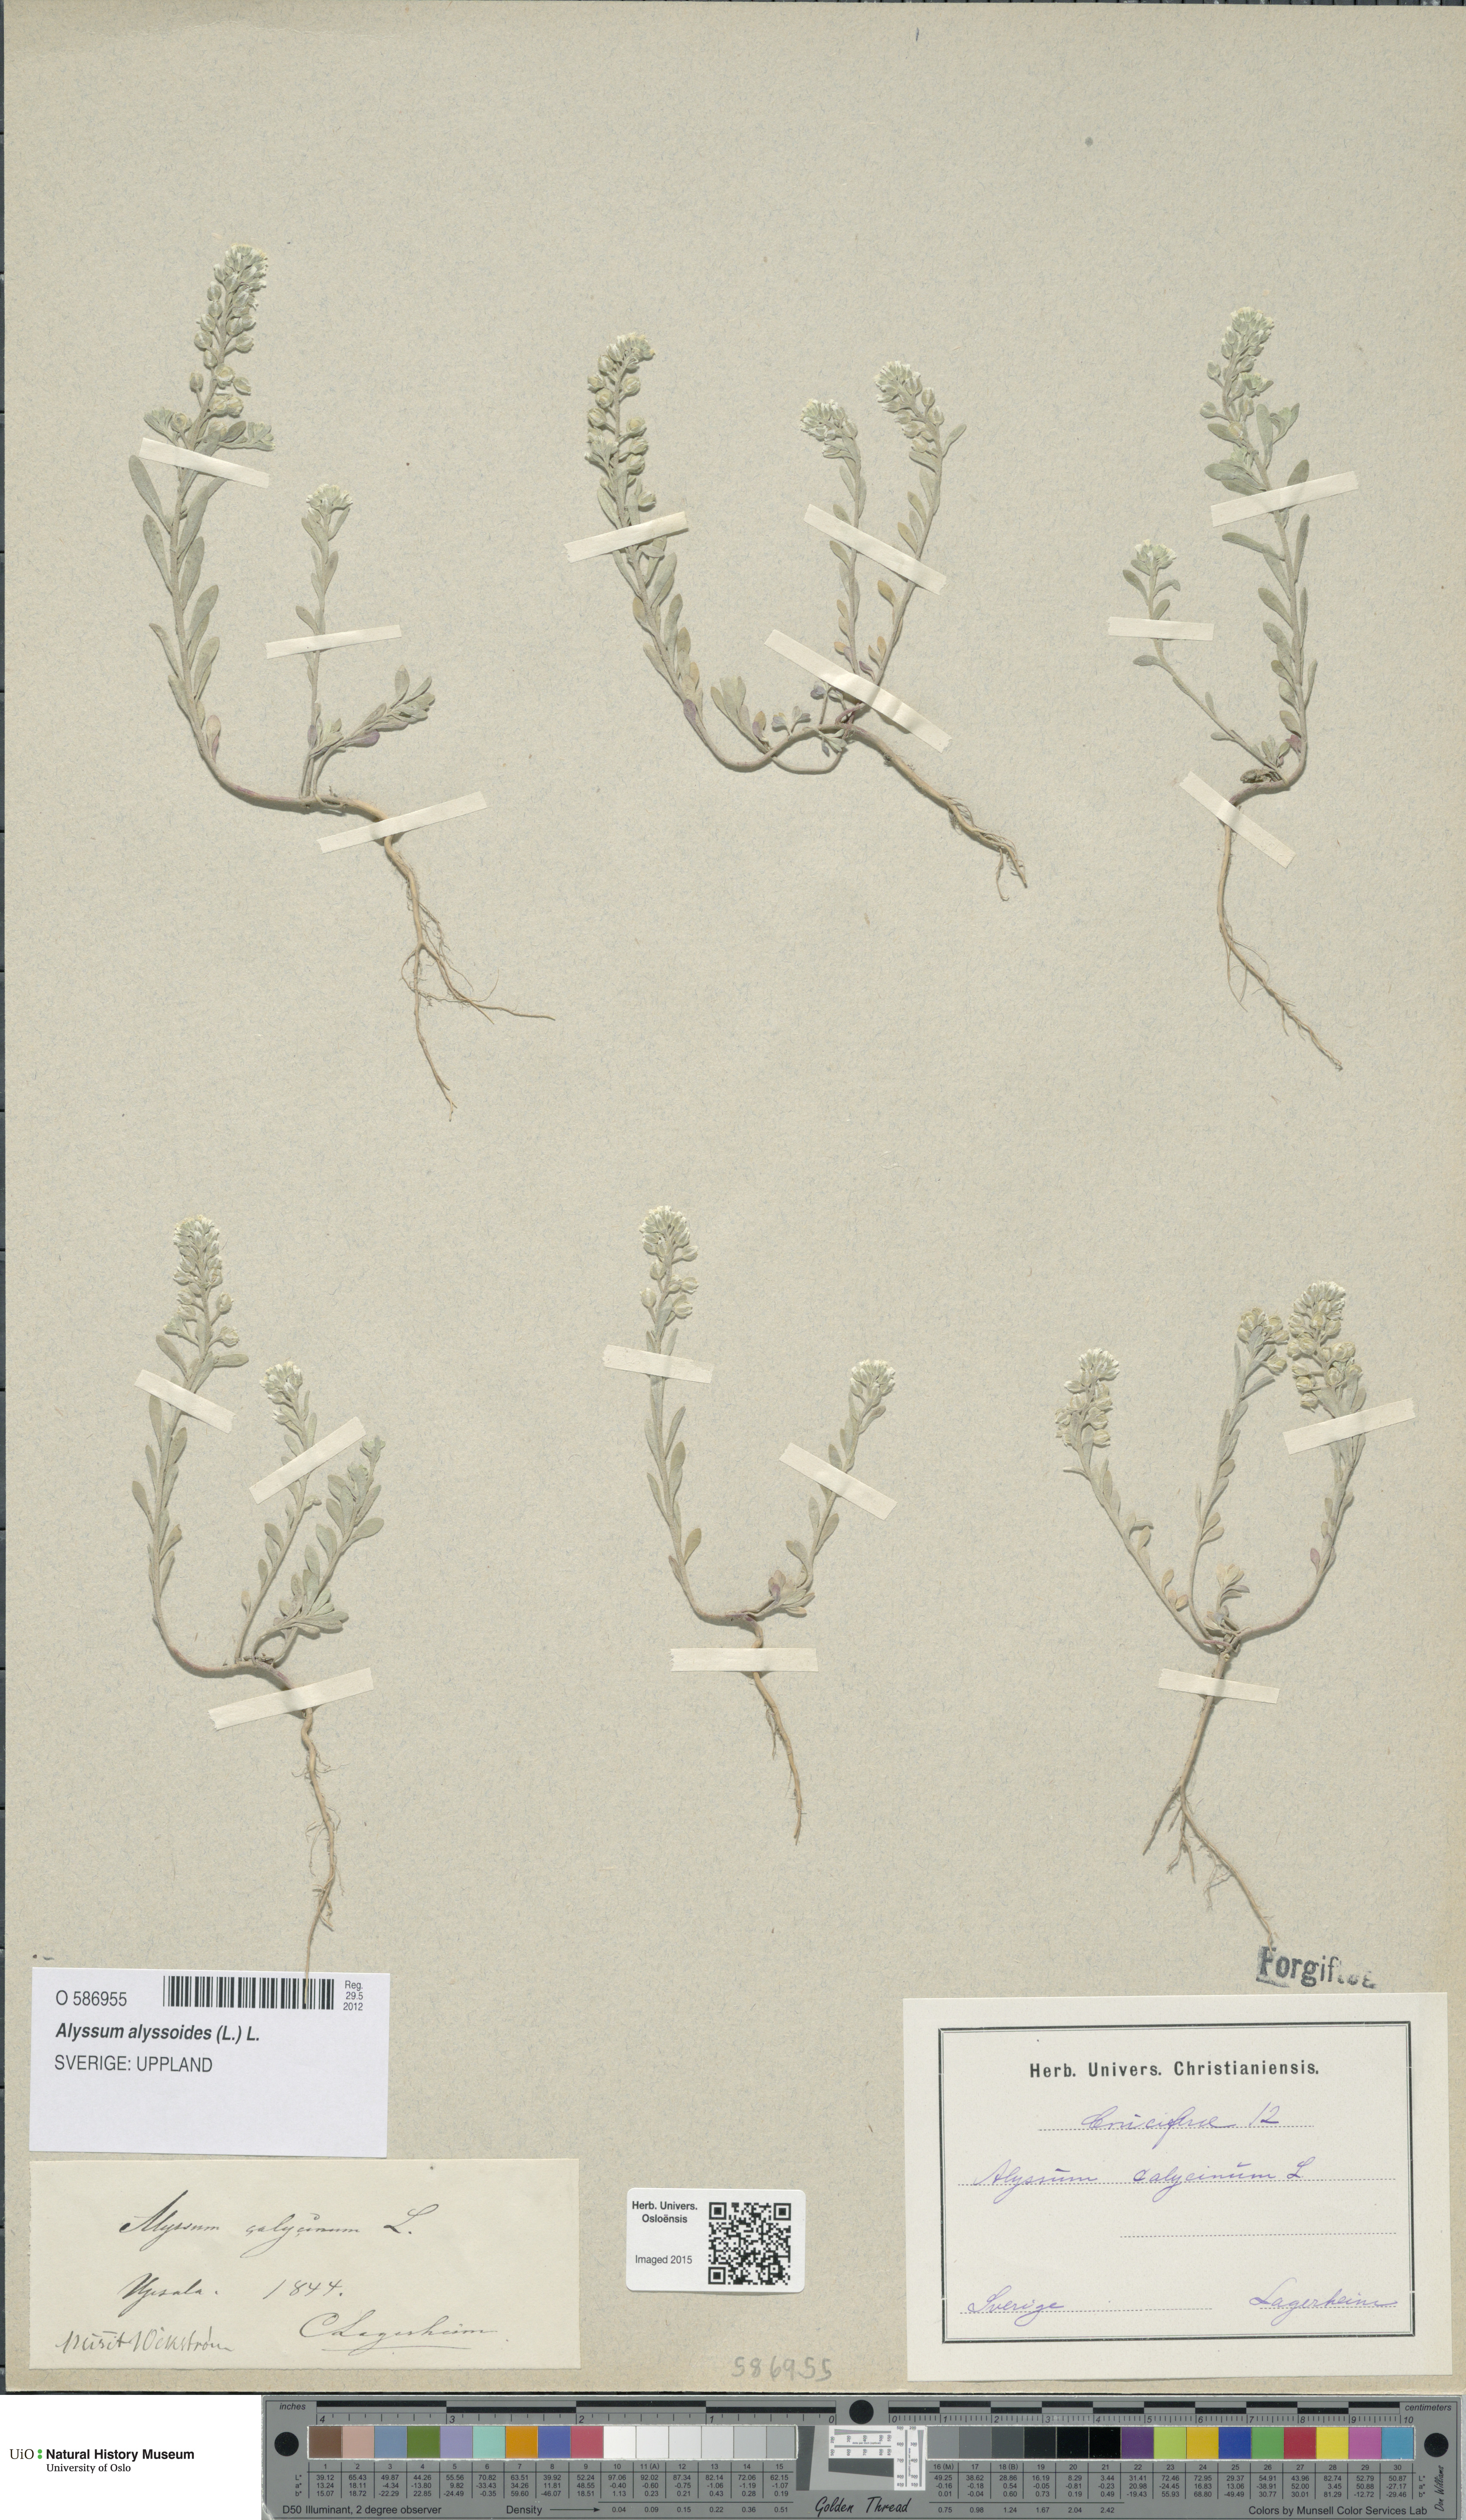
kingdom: Plantae
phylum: Tracheophyta
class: Magnoliopsida
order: Brassicales
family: Brassicaceae
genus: Alyssum
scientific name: Alyssum alyssoides
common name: Small alison
